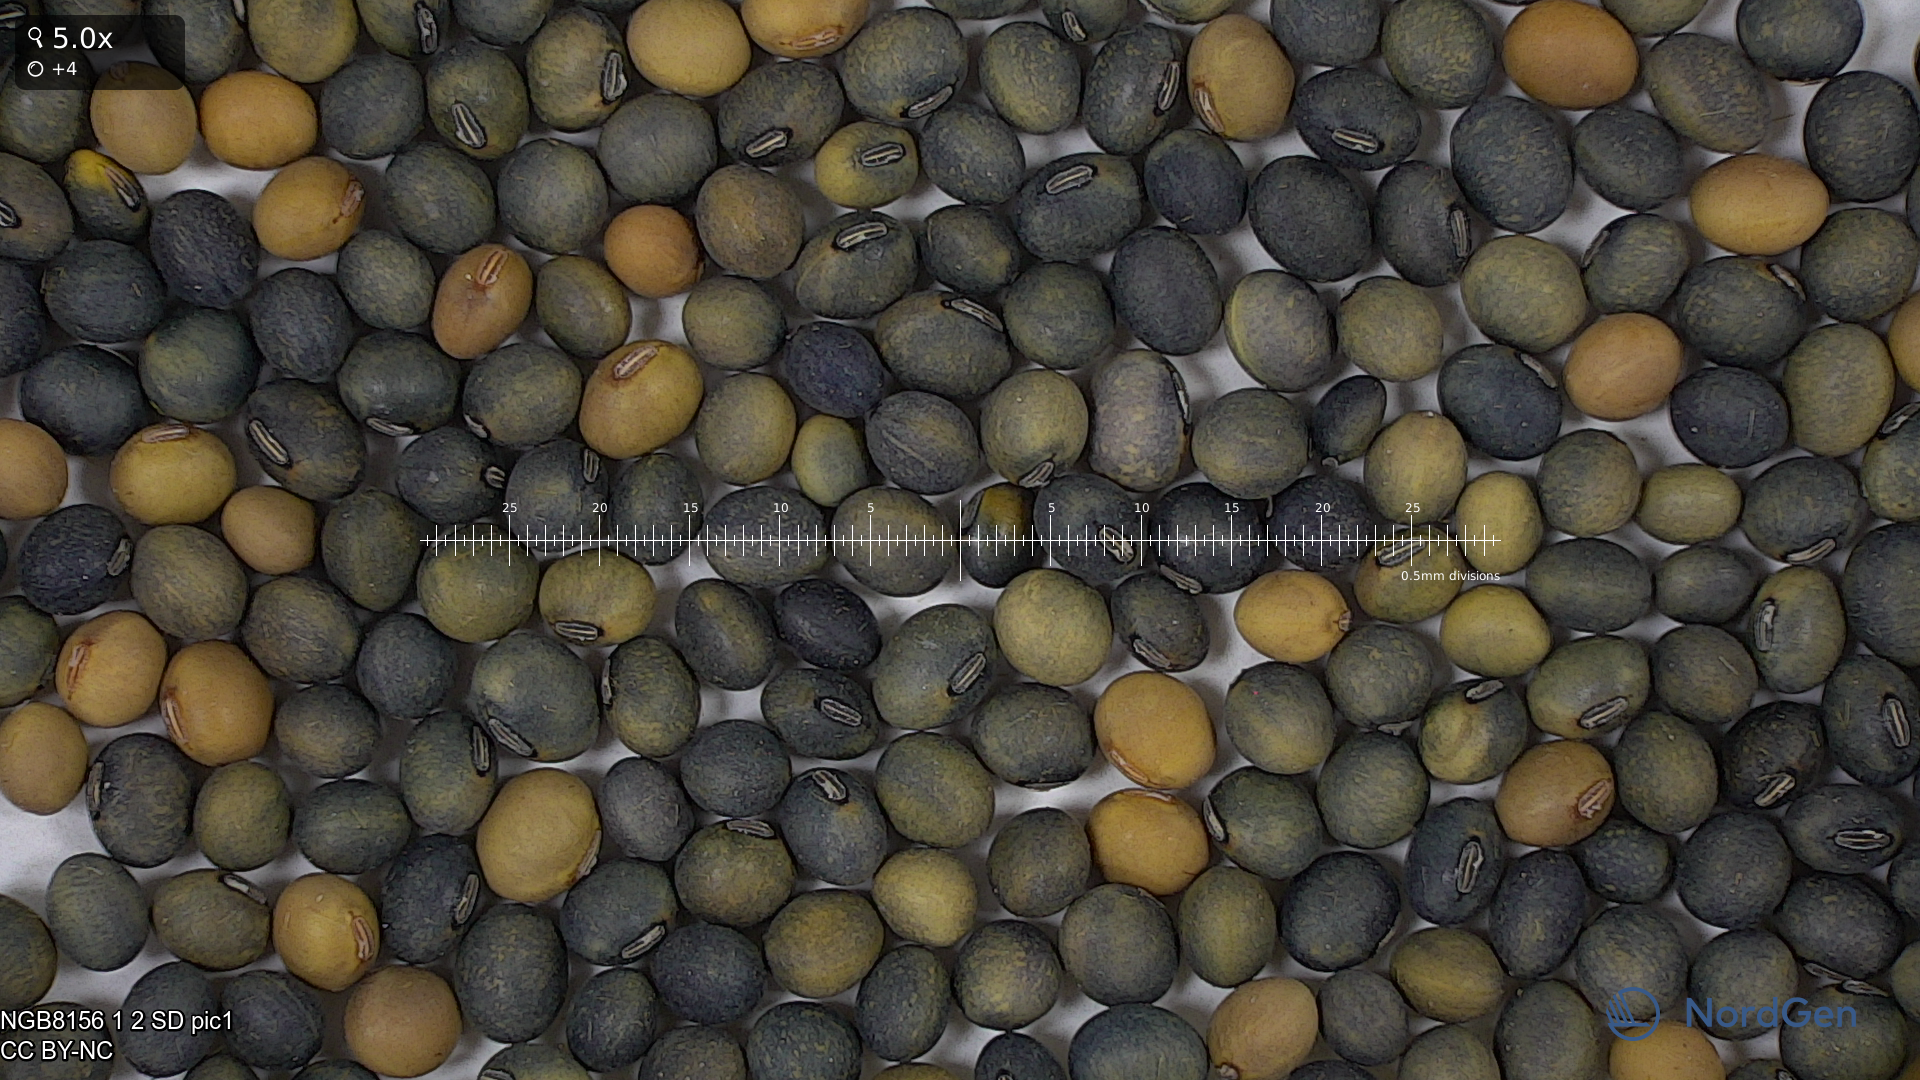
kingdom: Plantae
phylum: Tracheophyta
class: Magnoliopsida
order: Fabales
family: Fabaceae
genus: Glycine
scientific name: Glycine max
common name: Soya-bean
